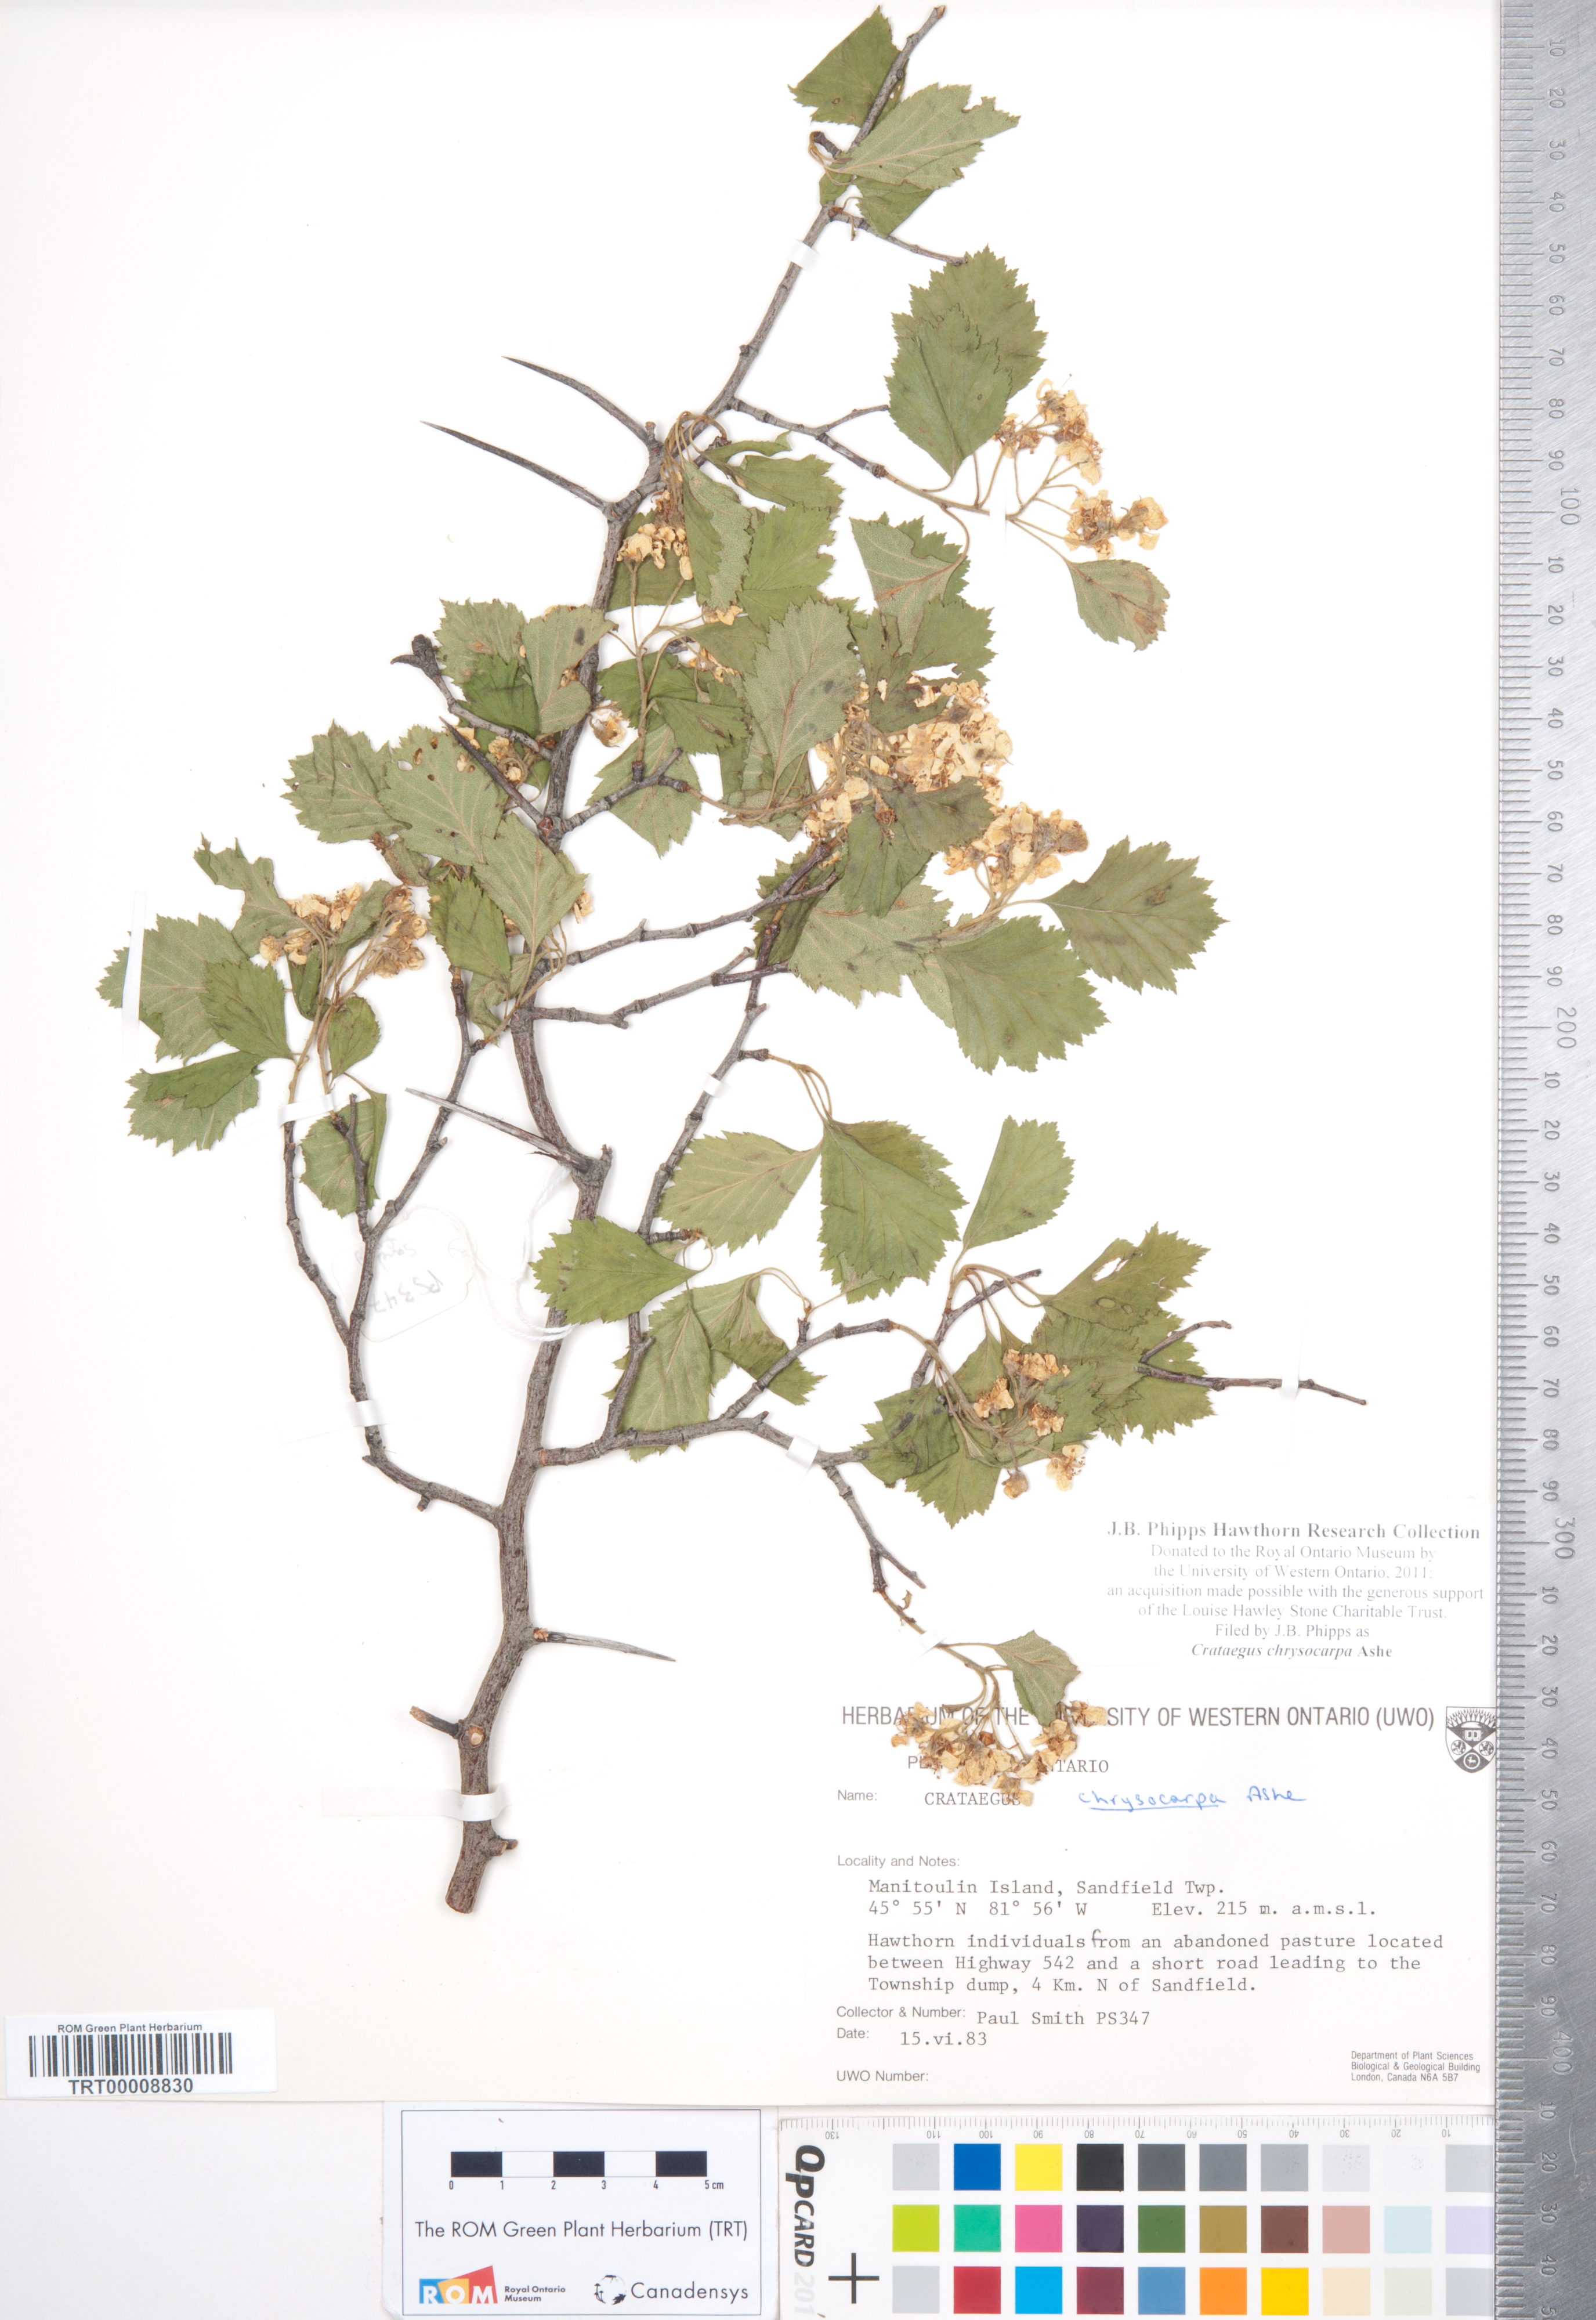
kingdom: Plantae
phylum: Tracheophyta
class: Magnoliopsida
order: Rosales
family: Rosaceae
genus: Crataegus
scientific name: Crataegus chrysocarpa
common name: Fire-berry hawthorn
